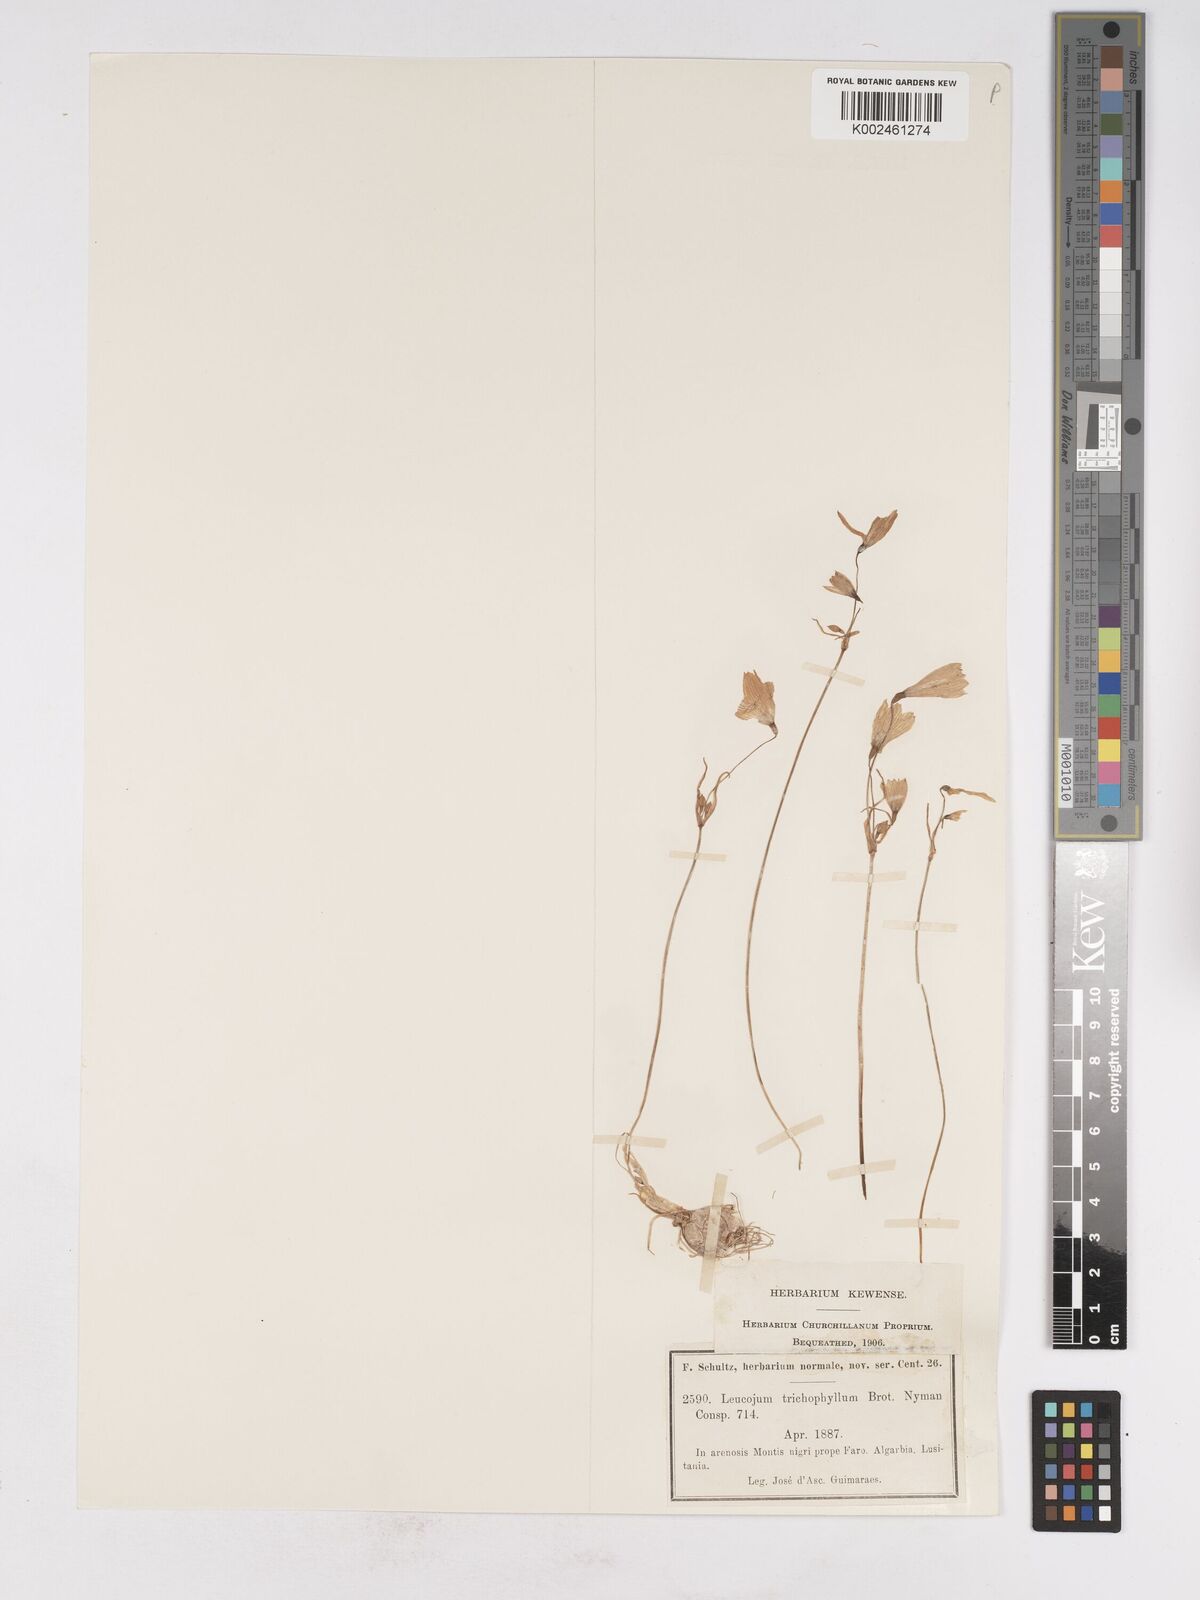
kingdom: Plantae
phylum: Tracheophyta
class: Liliopsida
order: Asparagales
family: Amaryllidaceae
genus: Acis
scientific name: Acis trichophylla
